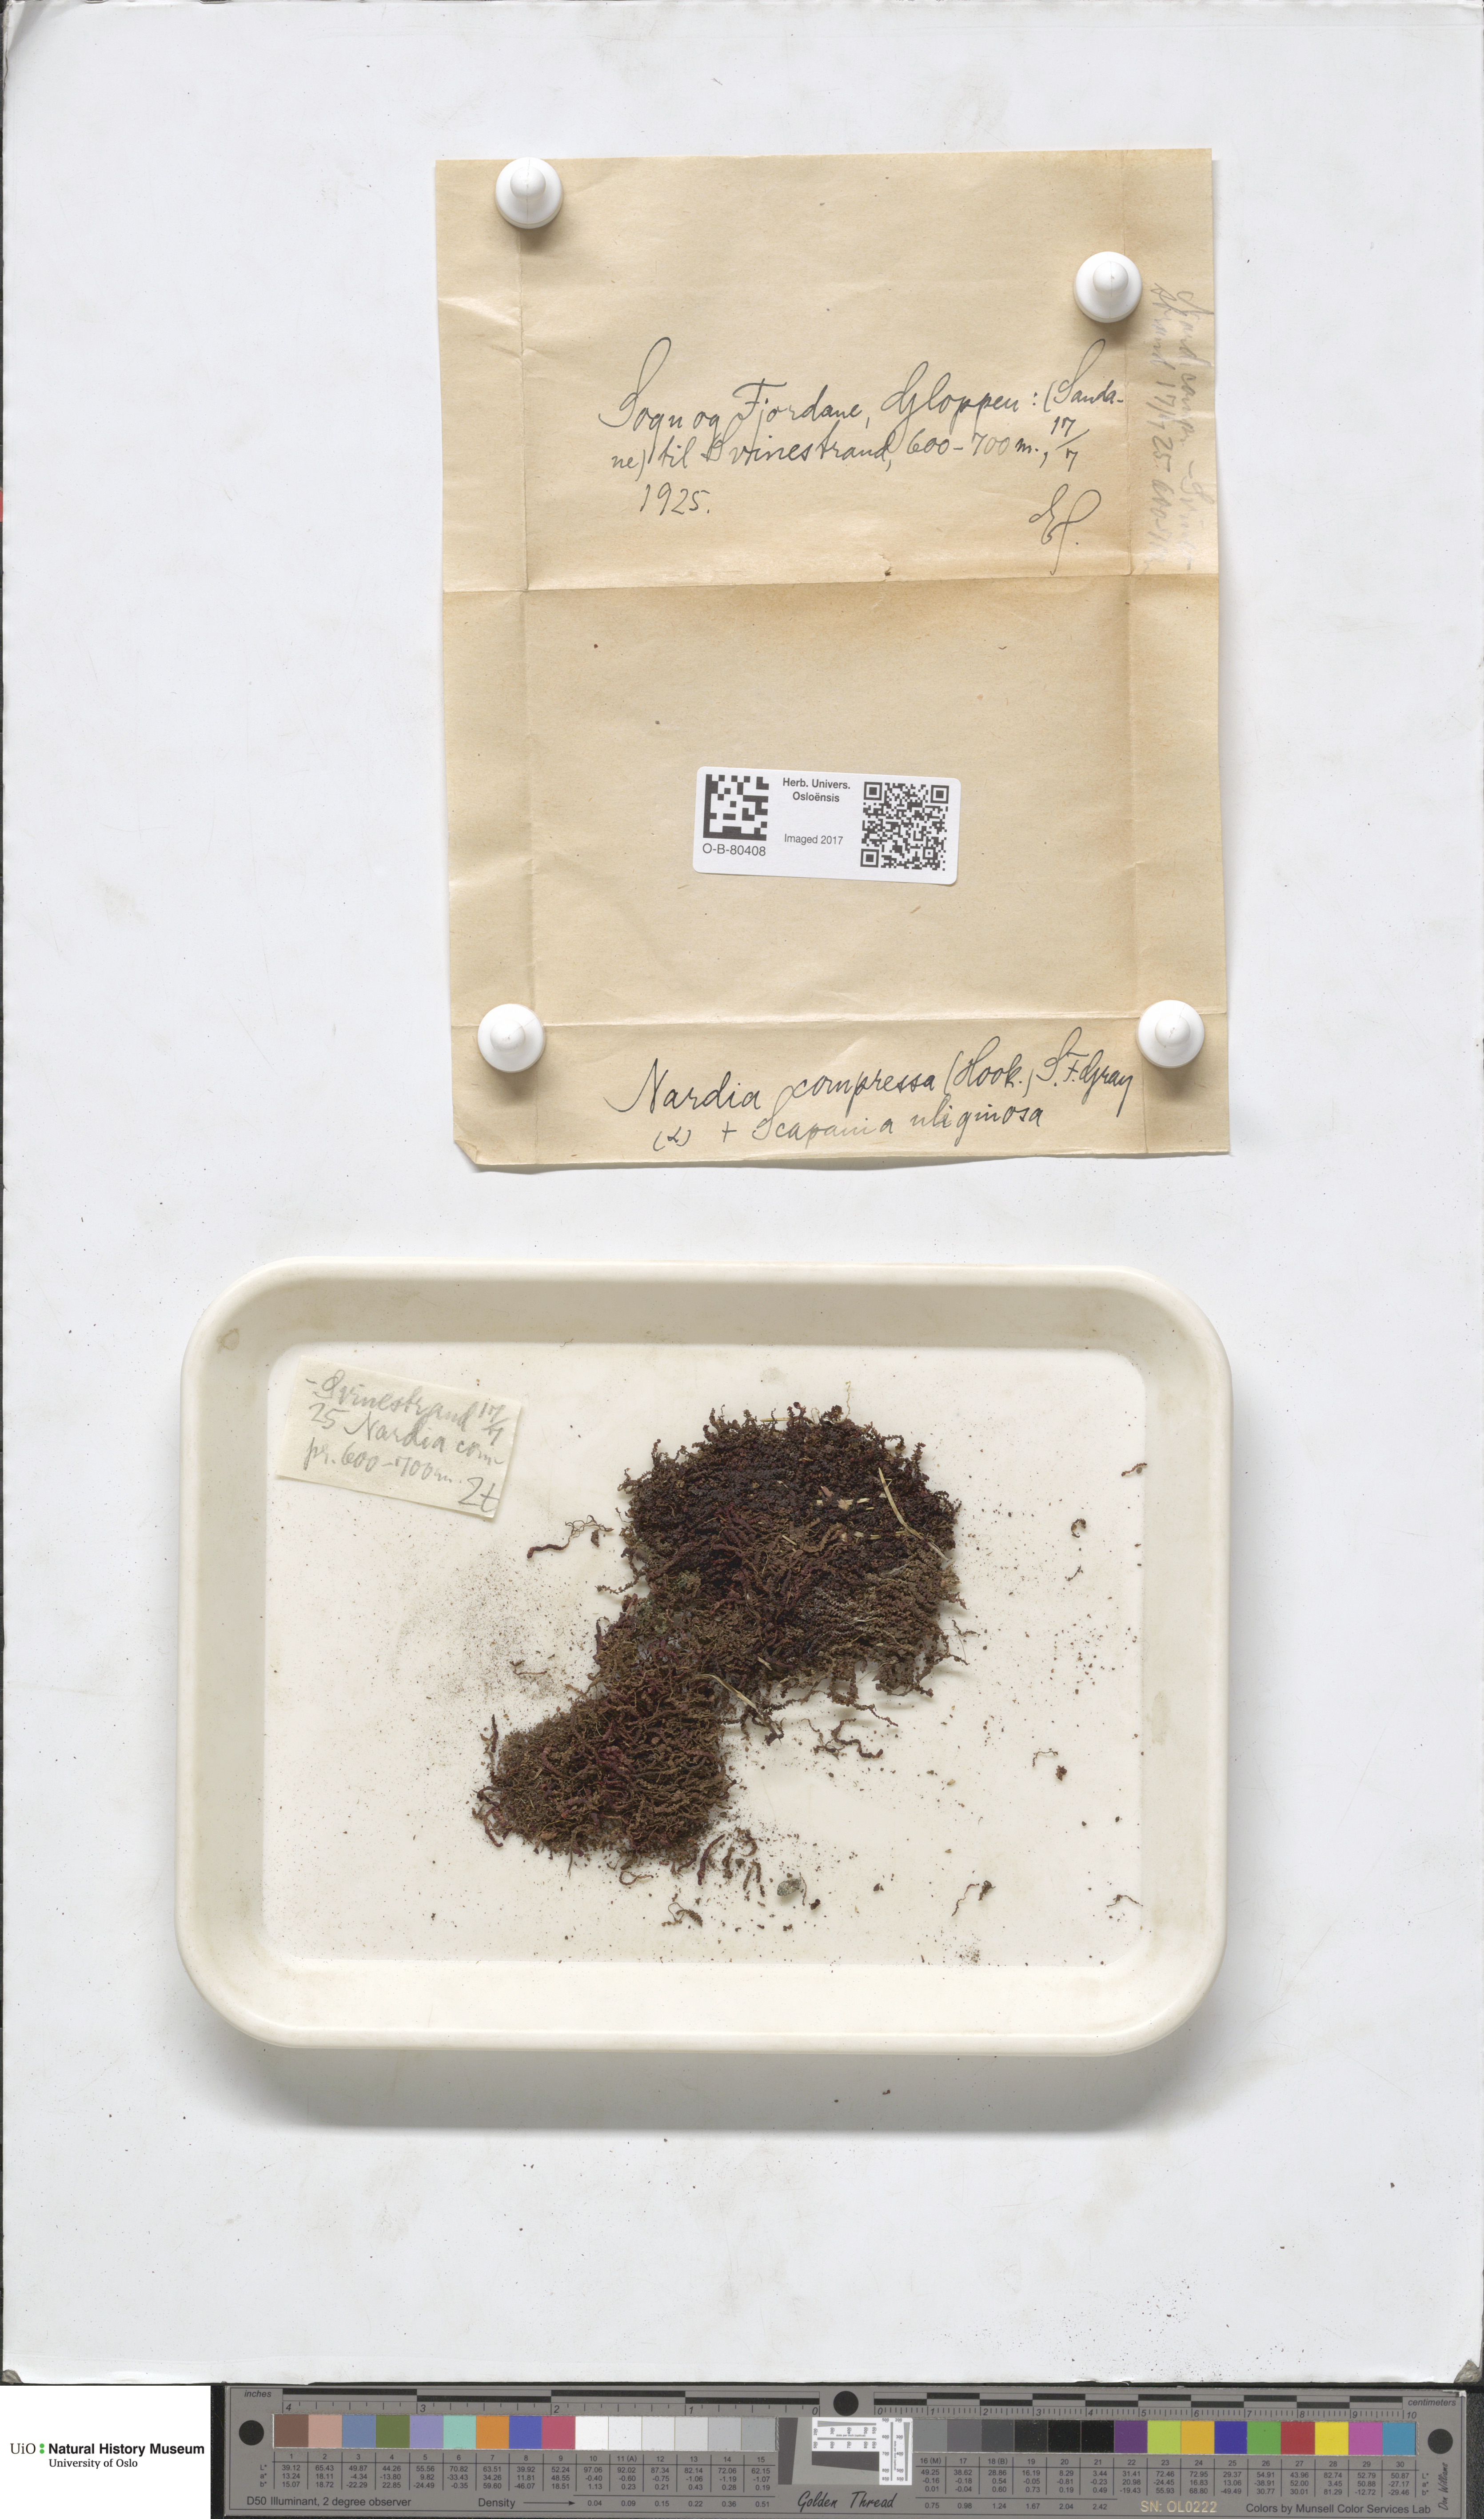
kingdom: Plantae
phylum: Marchantiophyta
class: Jungermanniopsida
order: Jungermanniales
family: Gymnomitriaceae
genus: Nardia
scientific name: Nardia compressa
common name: Compressed flapwort
